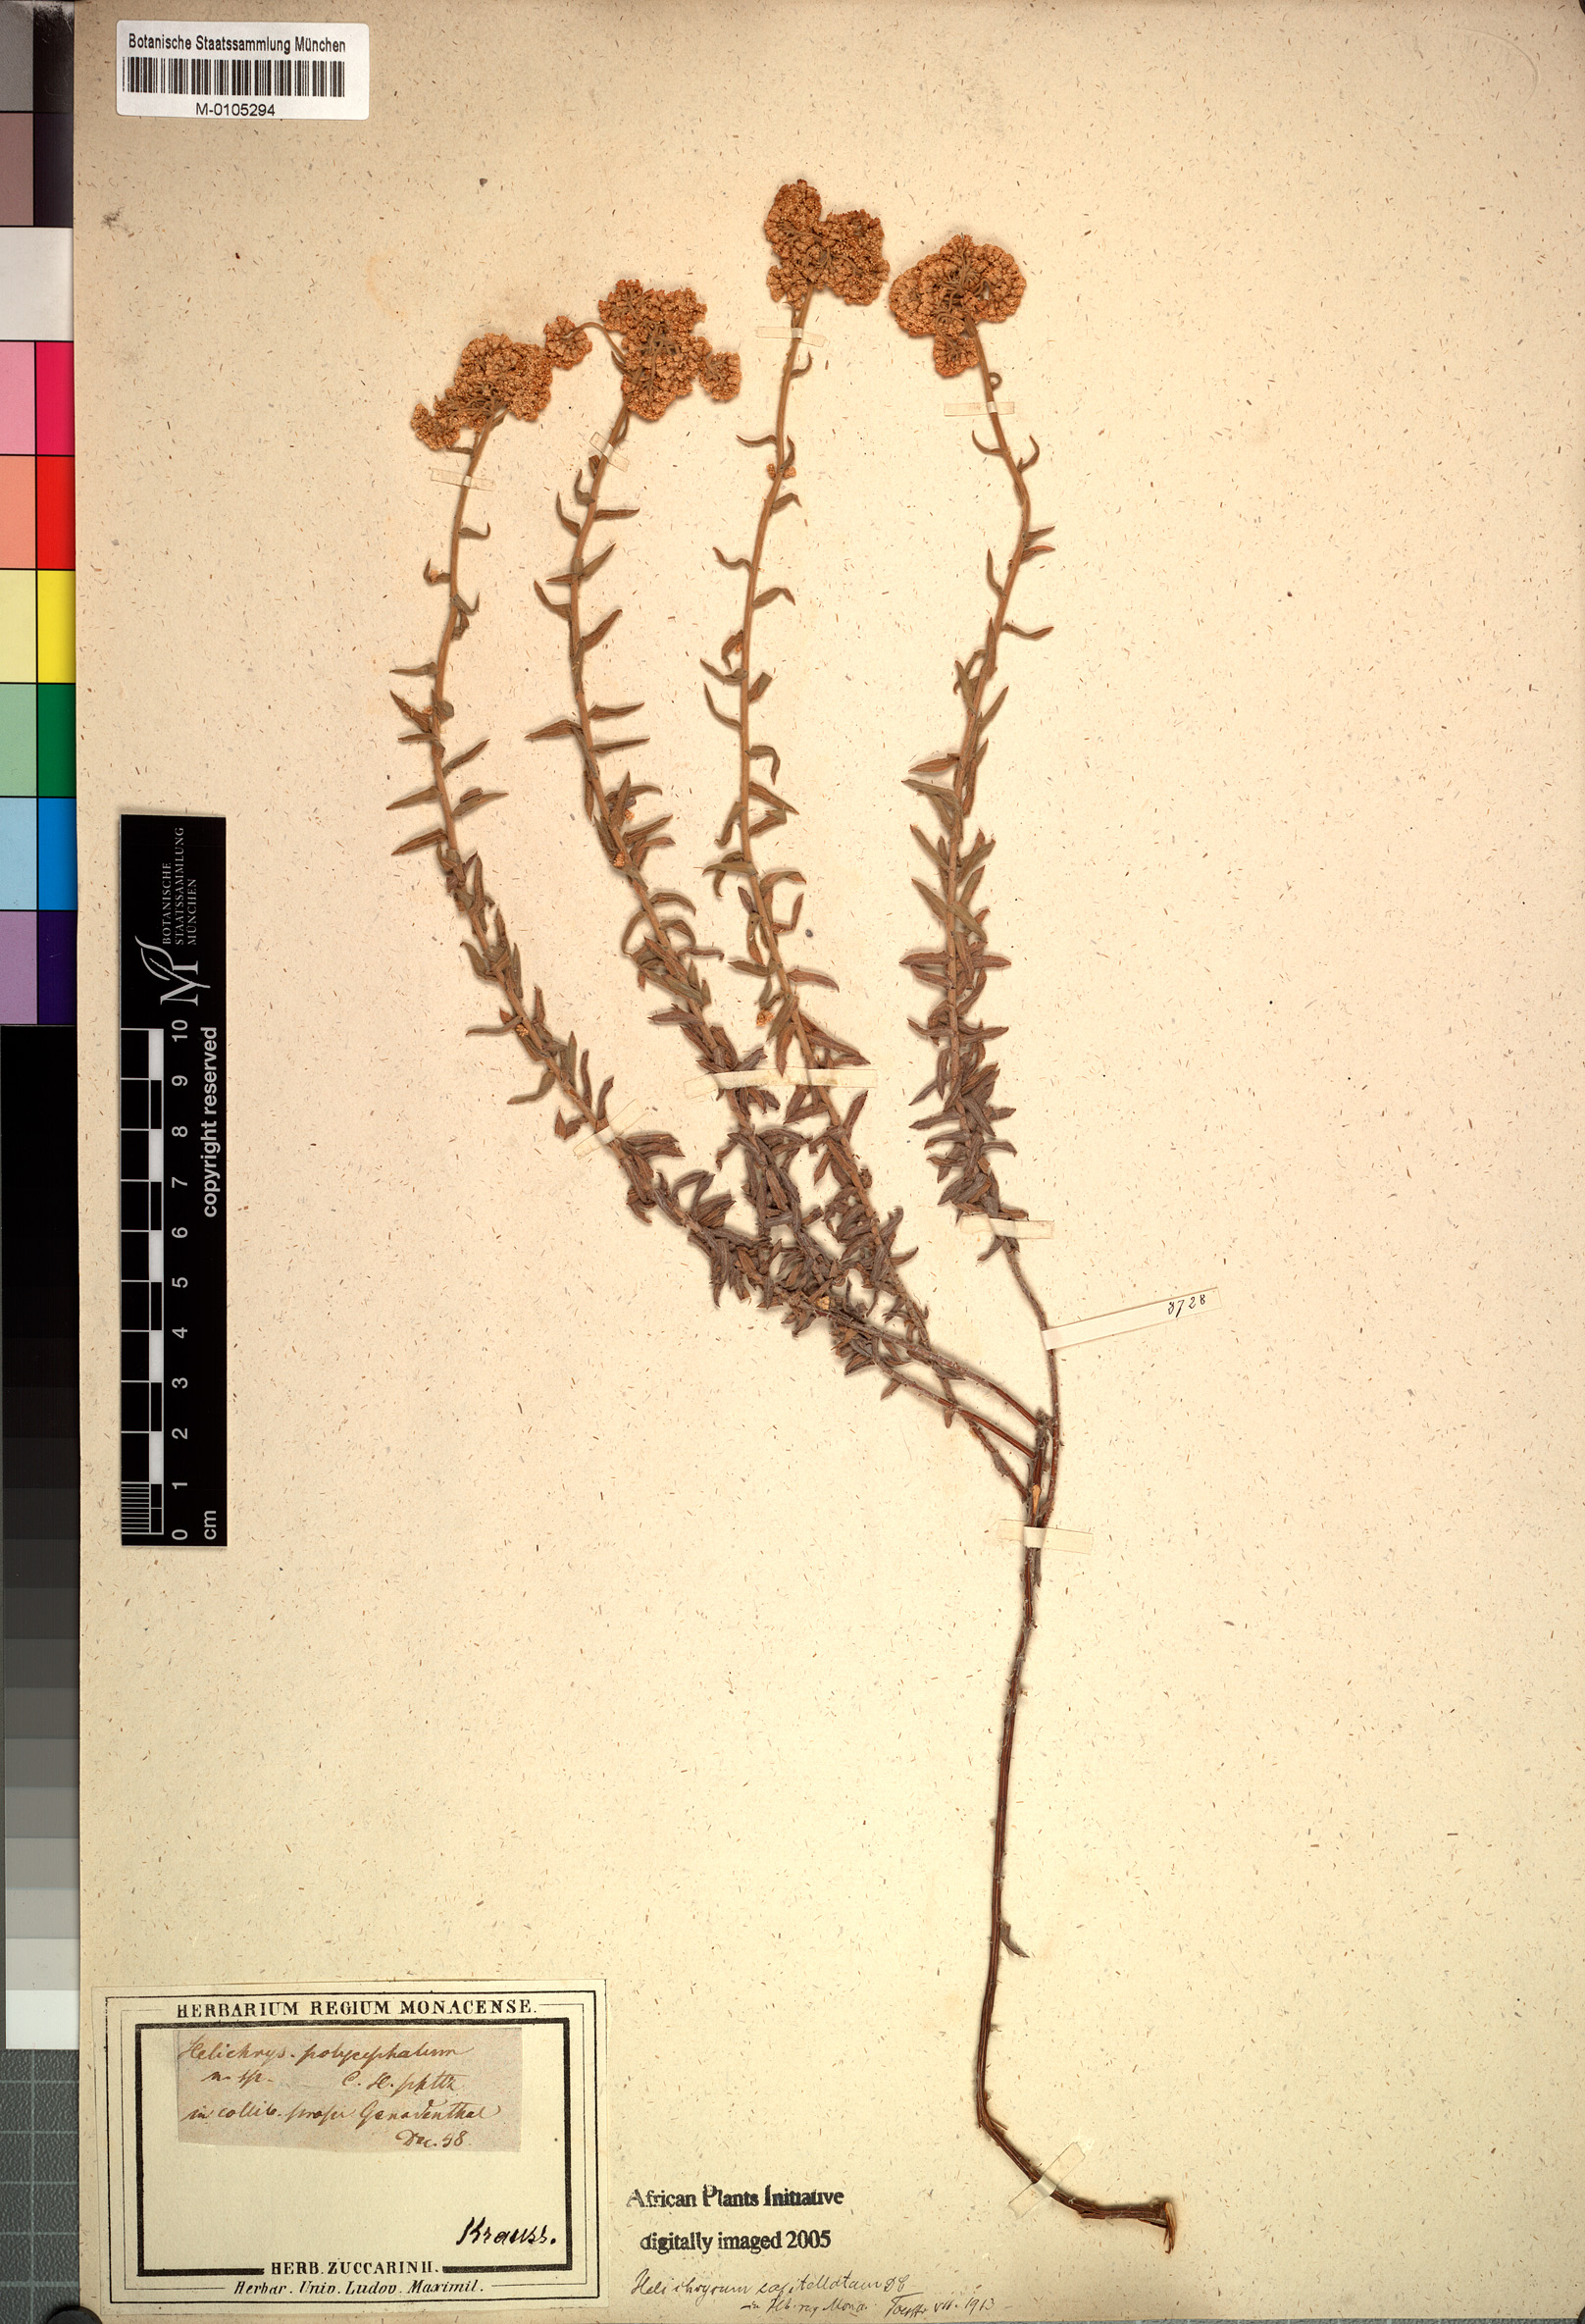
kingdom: Plantae
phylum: Tracheophyta
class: Magnoliopsida
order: Asterales
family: Asteraceae
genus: Helichrysum
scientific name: Helichrysum helianthemifolium
